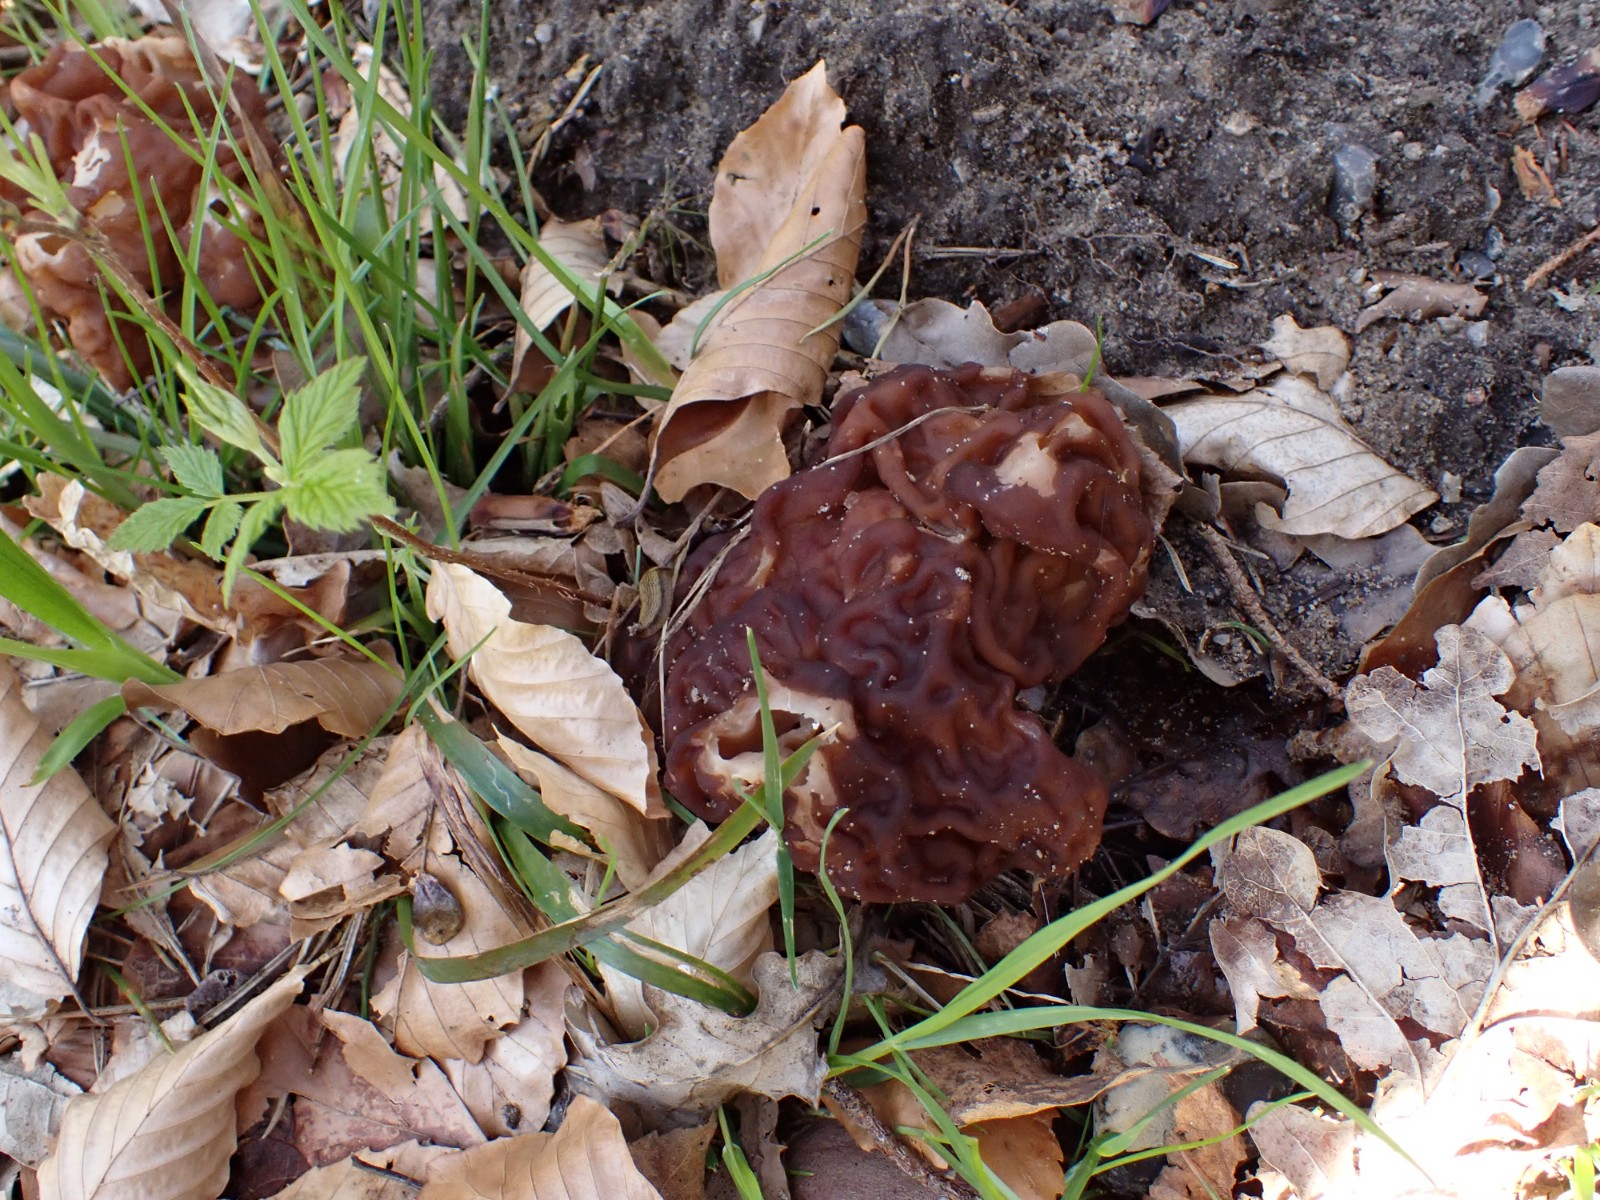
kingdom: Fungi
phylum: Ascomycota
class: Pezizomycetes
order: Pezizales
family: Discinaceae
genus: Gyromitra
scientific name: Gyromitra esculenta
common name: ægte stenmorkel
